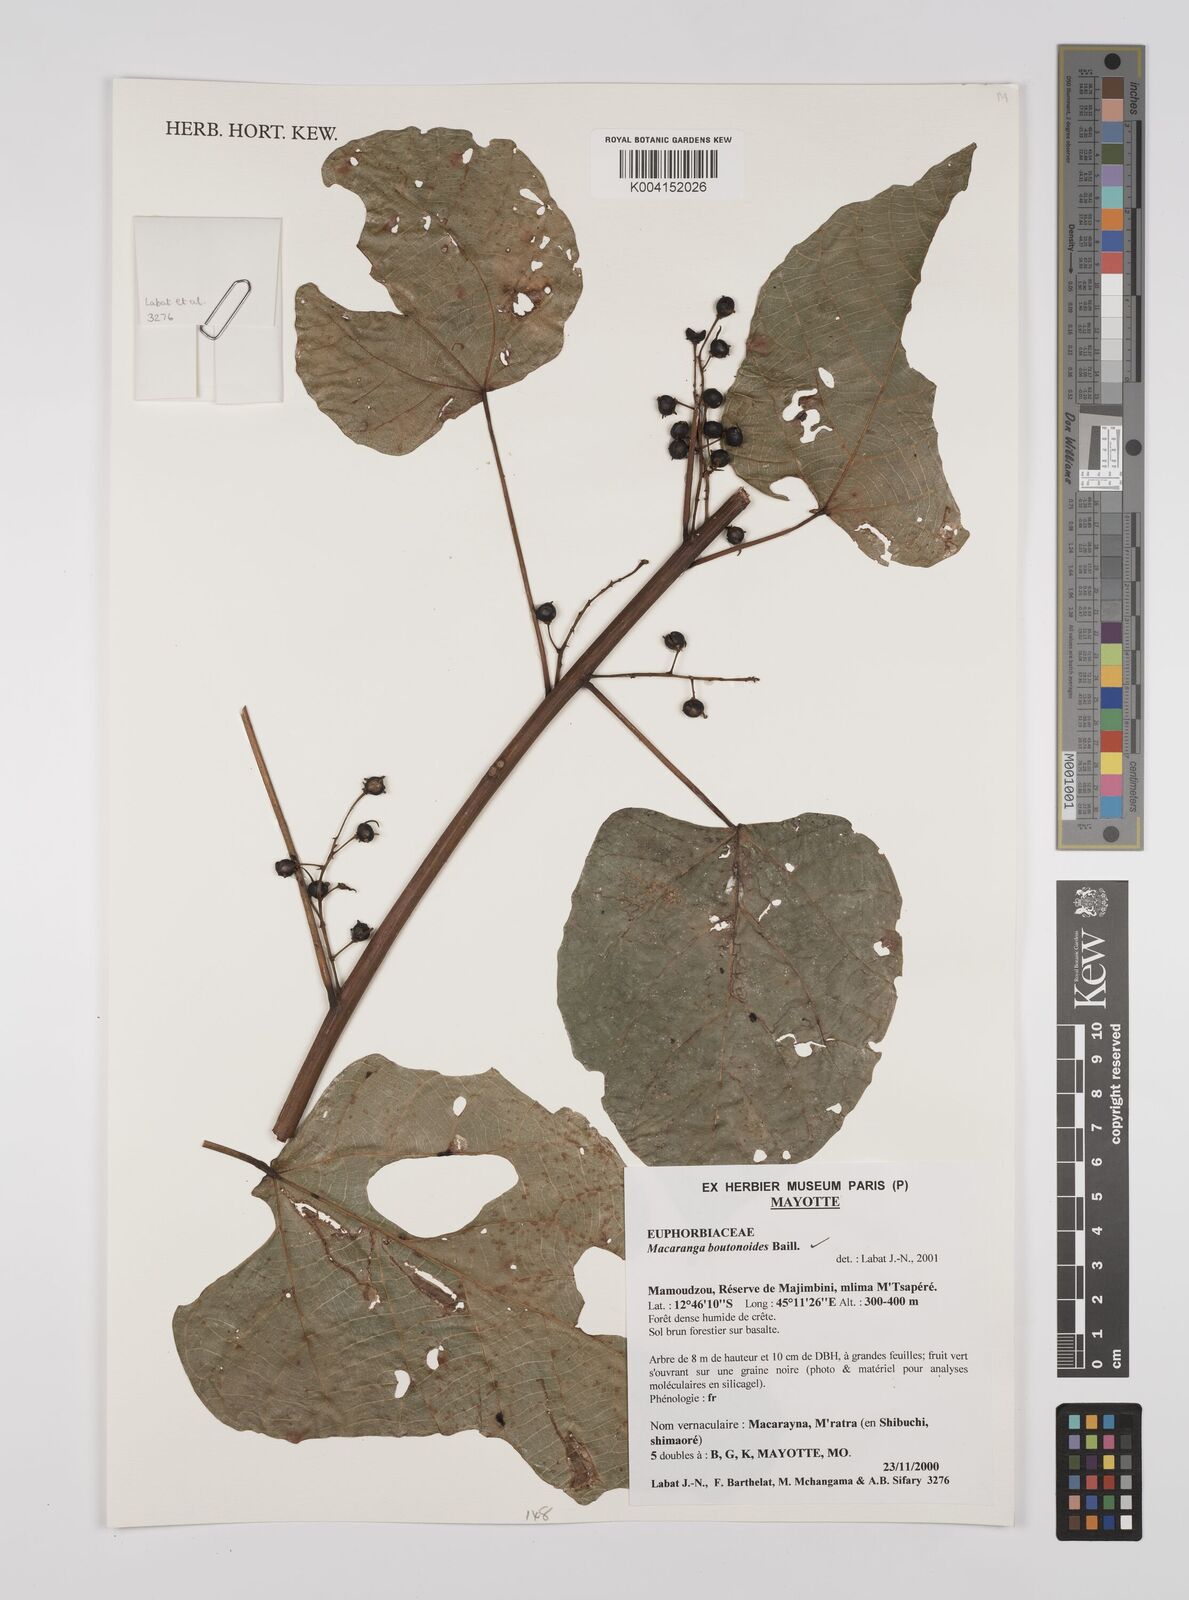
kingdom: Plantae
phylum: Tracheophyta
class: Magnoliopsida
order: Malpighiales
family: Euphorbiaceae
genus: Macaranga
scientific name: Macaranga boutonioides
